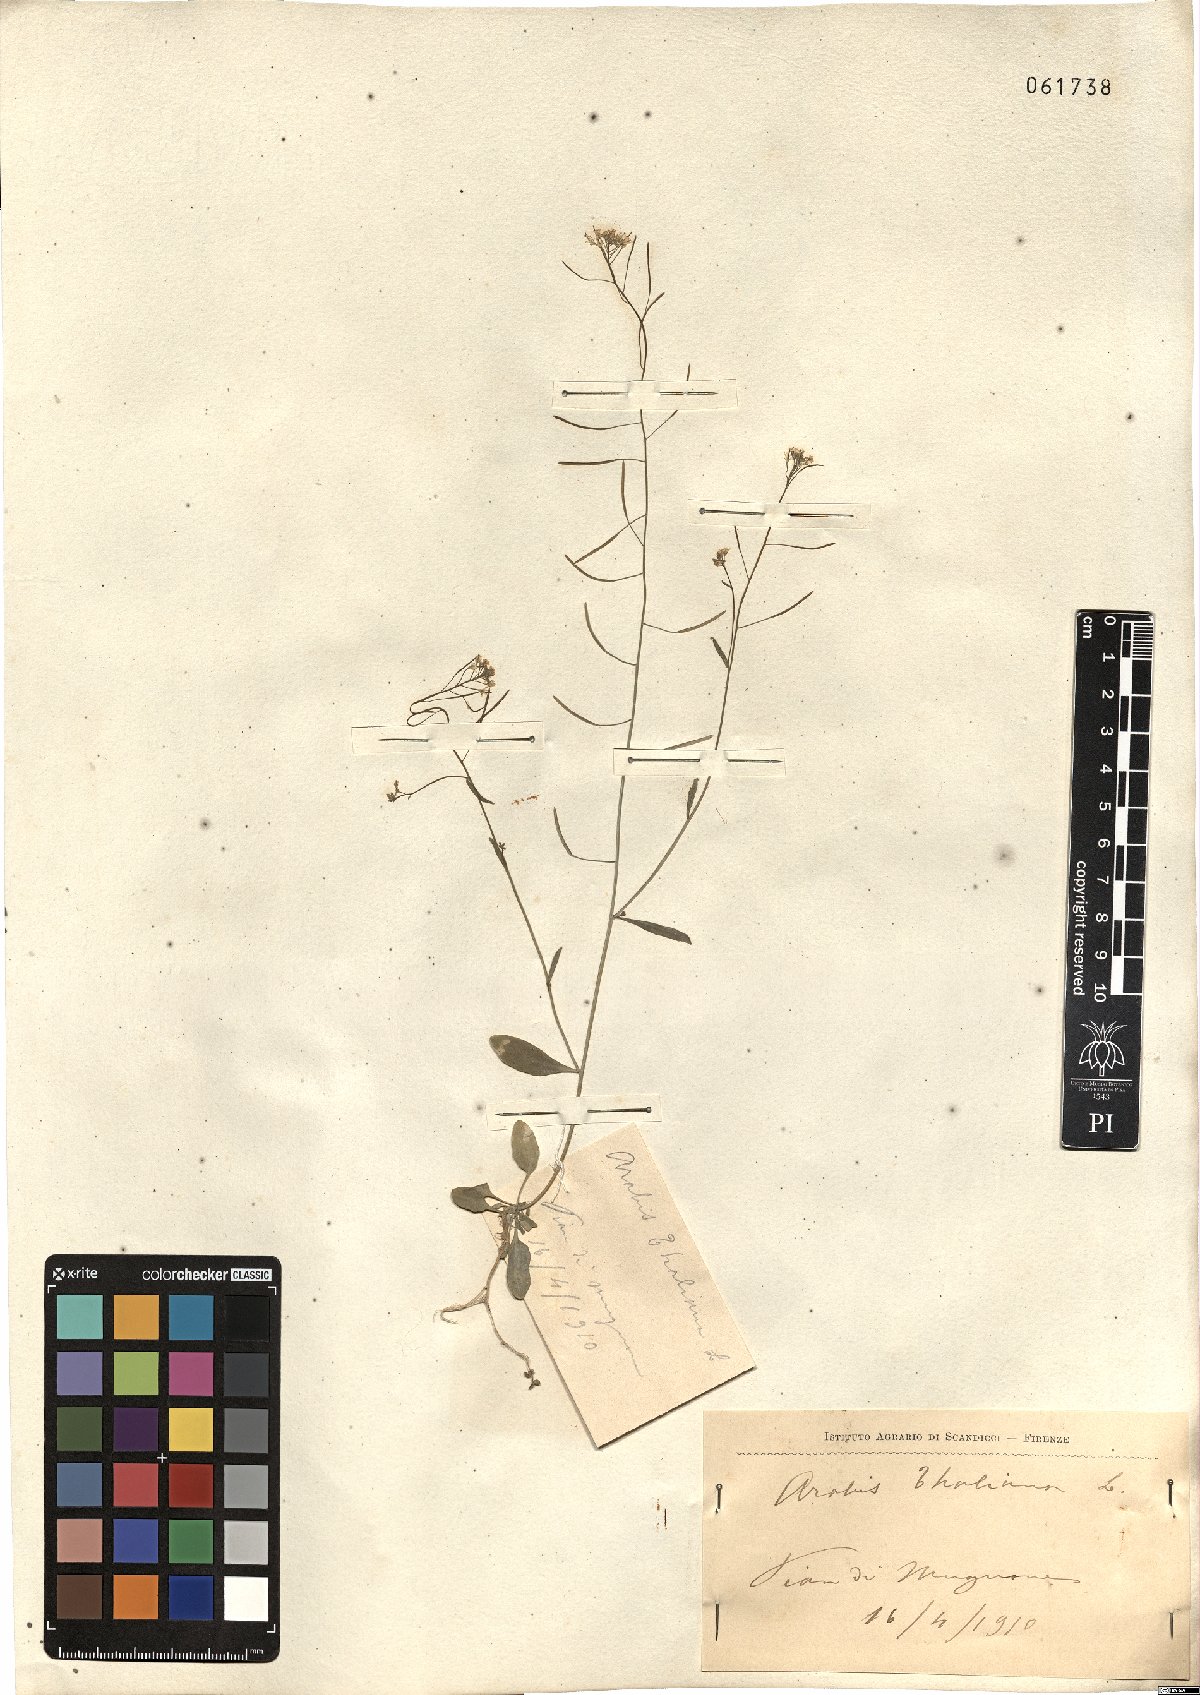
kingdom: Plantae
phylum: Tracheophyta
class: Magnoliopsida
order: Brassicales
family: Brassicaceae
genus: Arabidopsis
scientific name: Arabidopsis thaliana
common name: Thale cress
